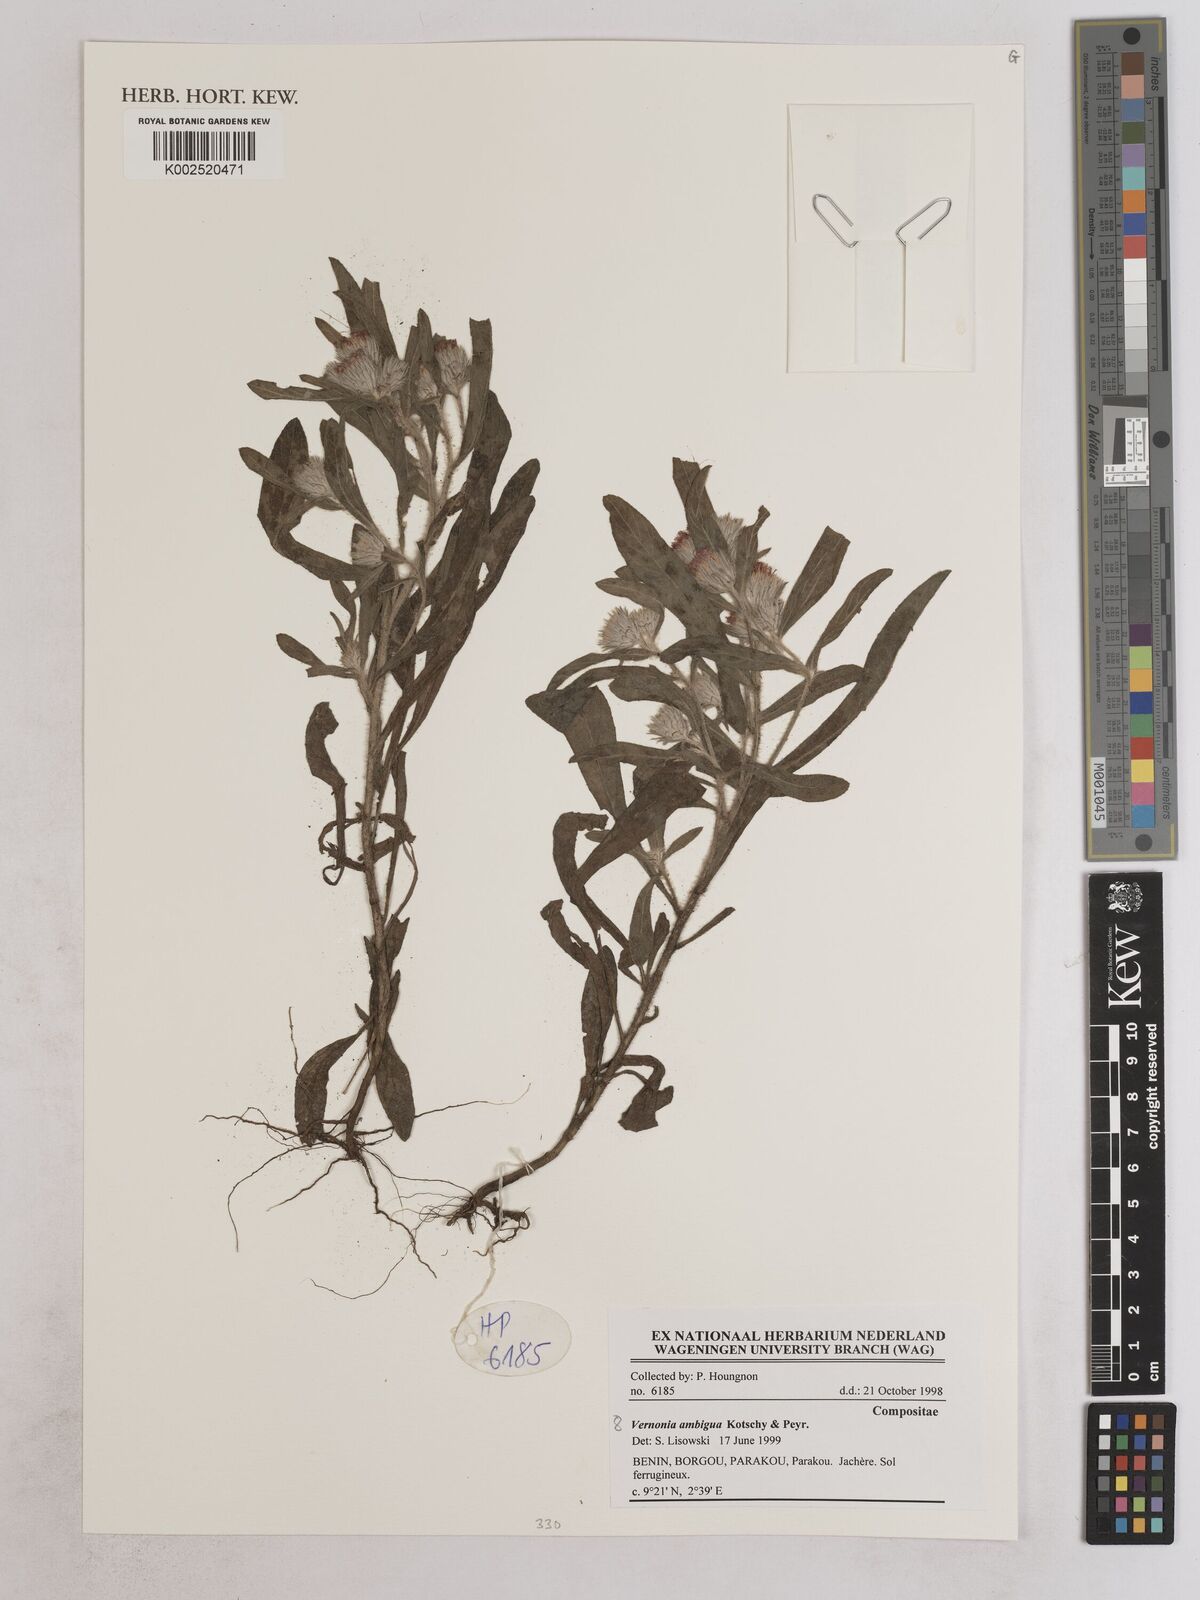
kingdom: Plantae
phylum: Tracheophyta
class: Magnoliopsida
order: Asterales
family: Asteraceae
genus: Vernoniastrum
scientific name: Vernoniastrum ambiguum
